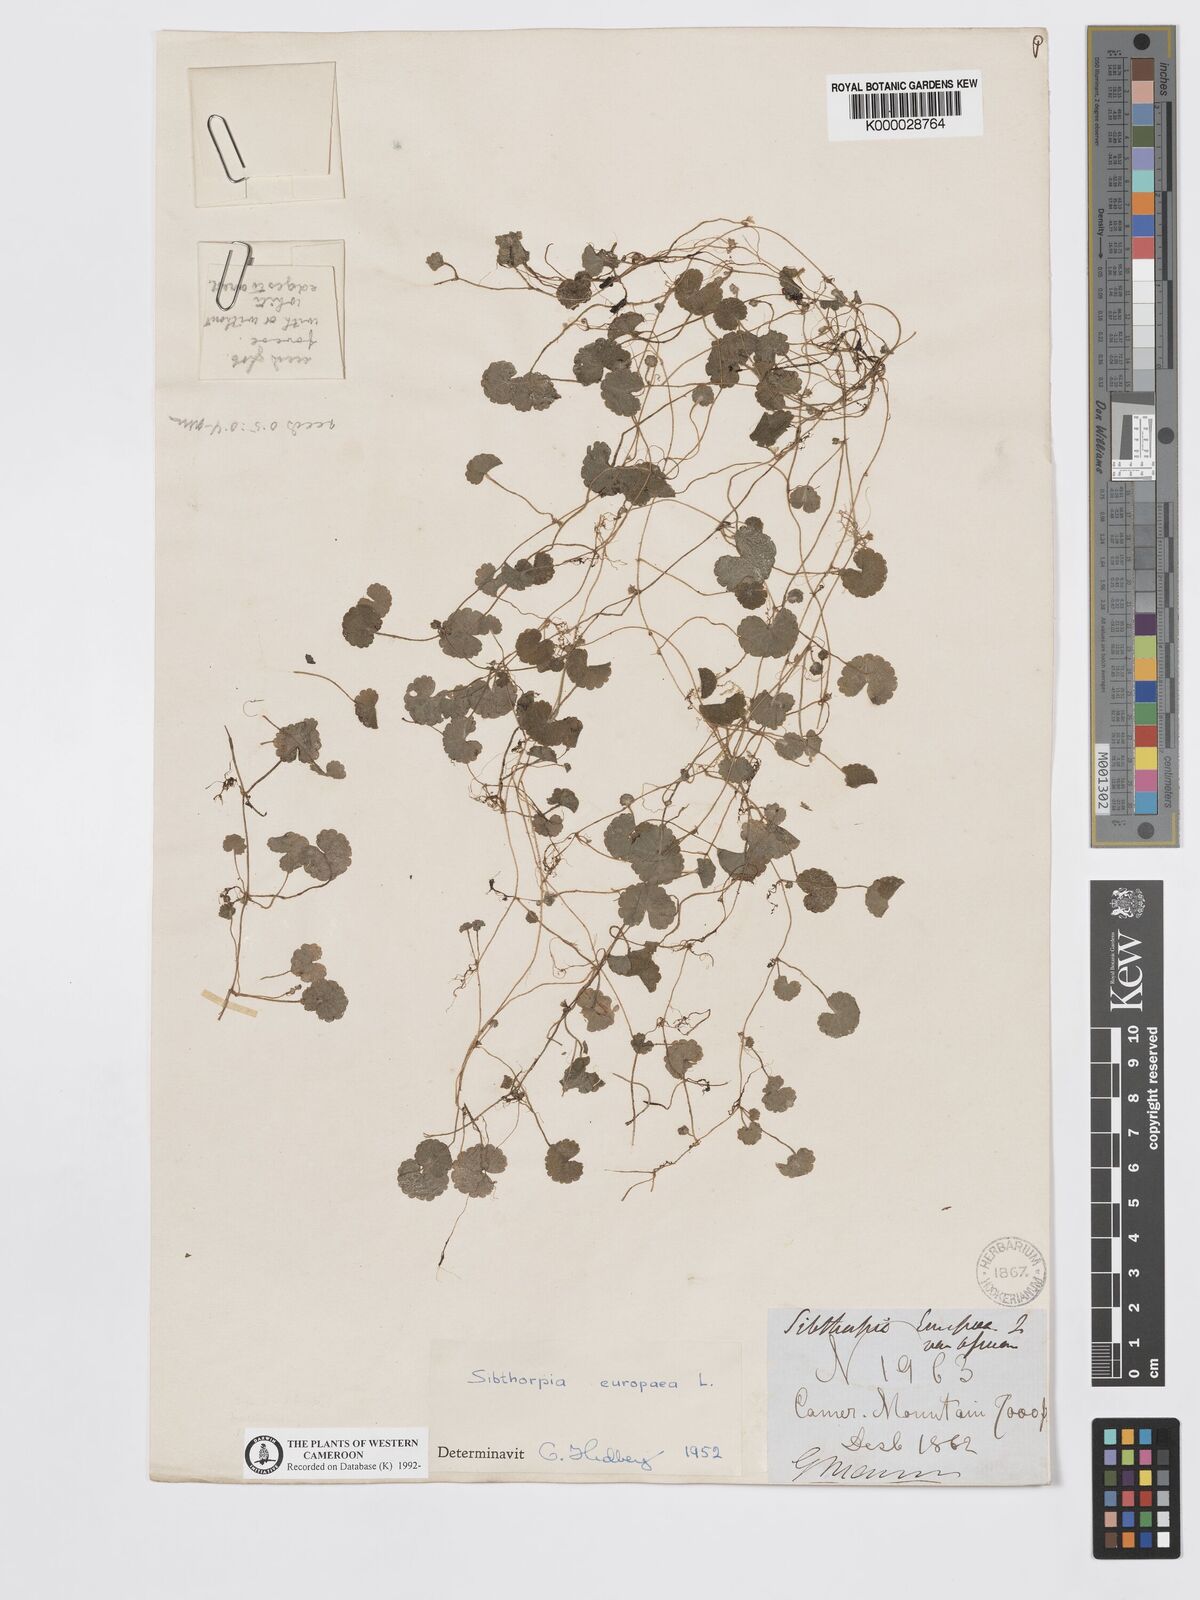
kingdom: Plantae
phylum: Tracheophyta
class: Magnoliopsida
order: Lamiales
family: Plantaginaceae
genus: Sibthorpia
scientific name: Sibthorpia europaea
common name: Cornish moneywort
